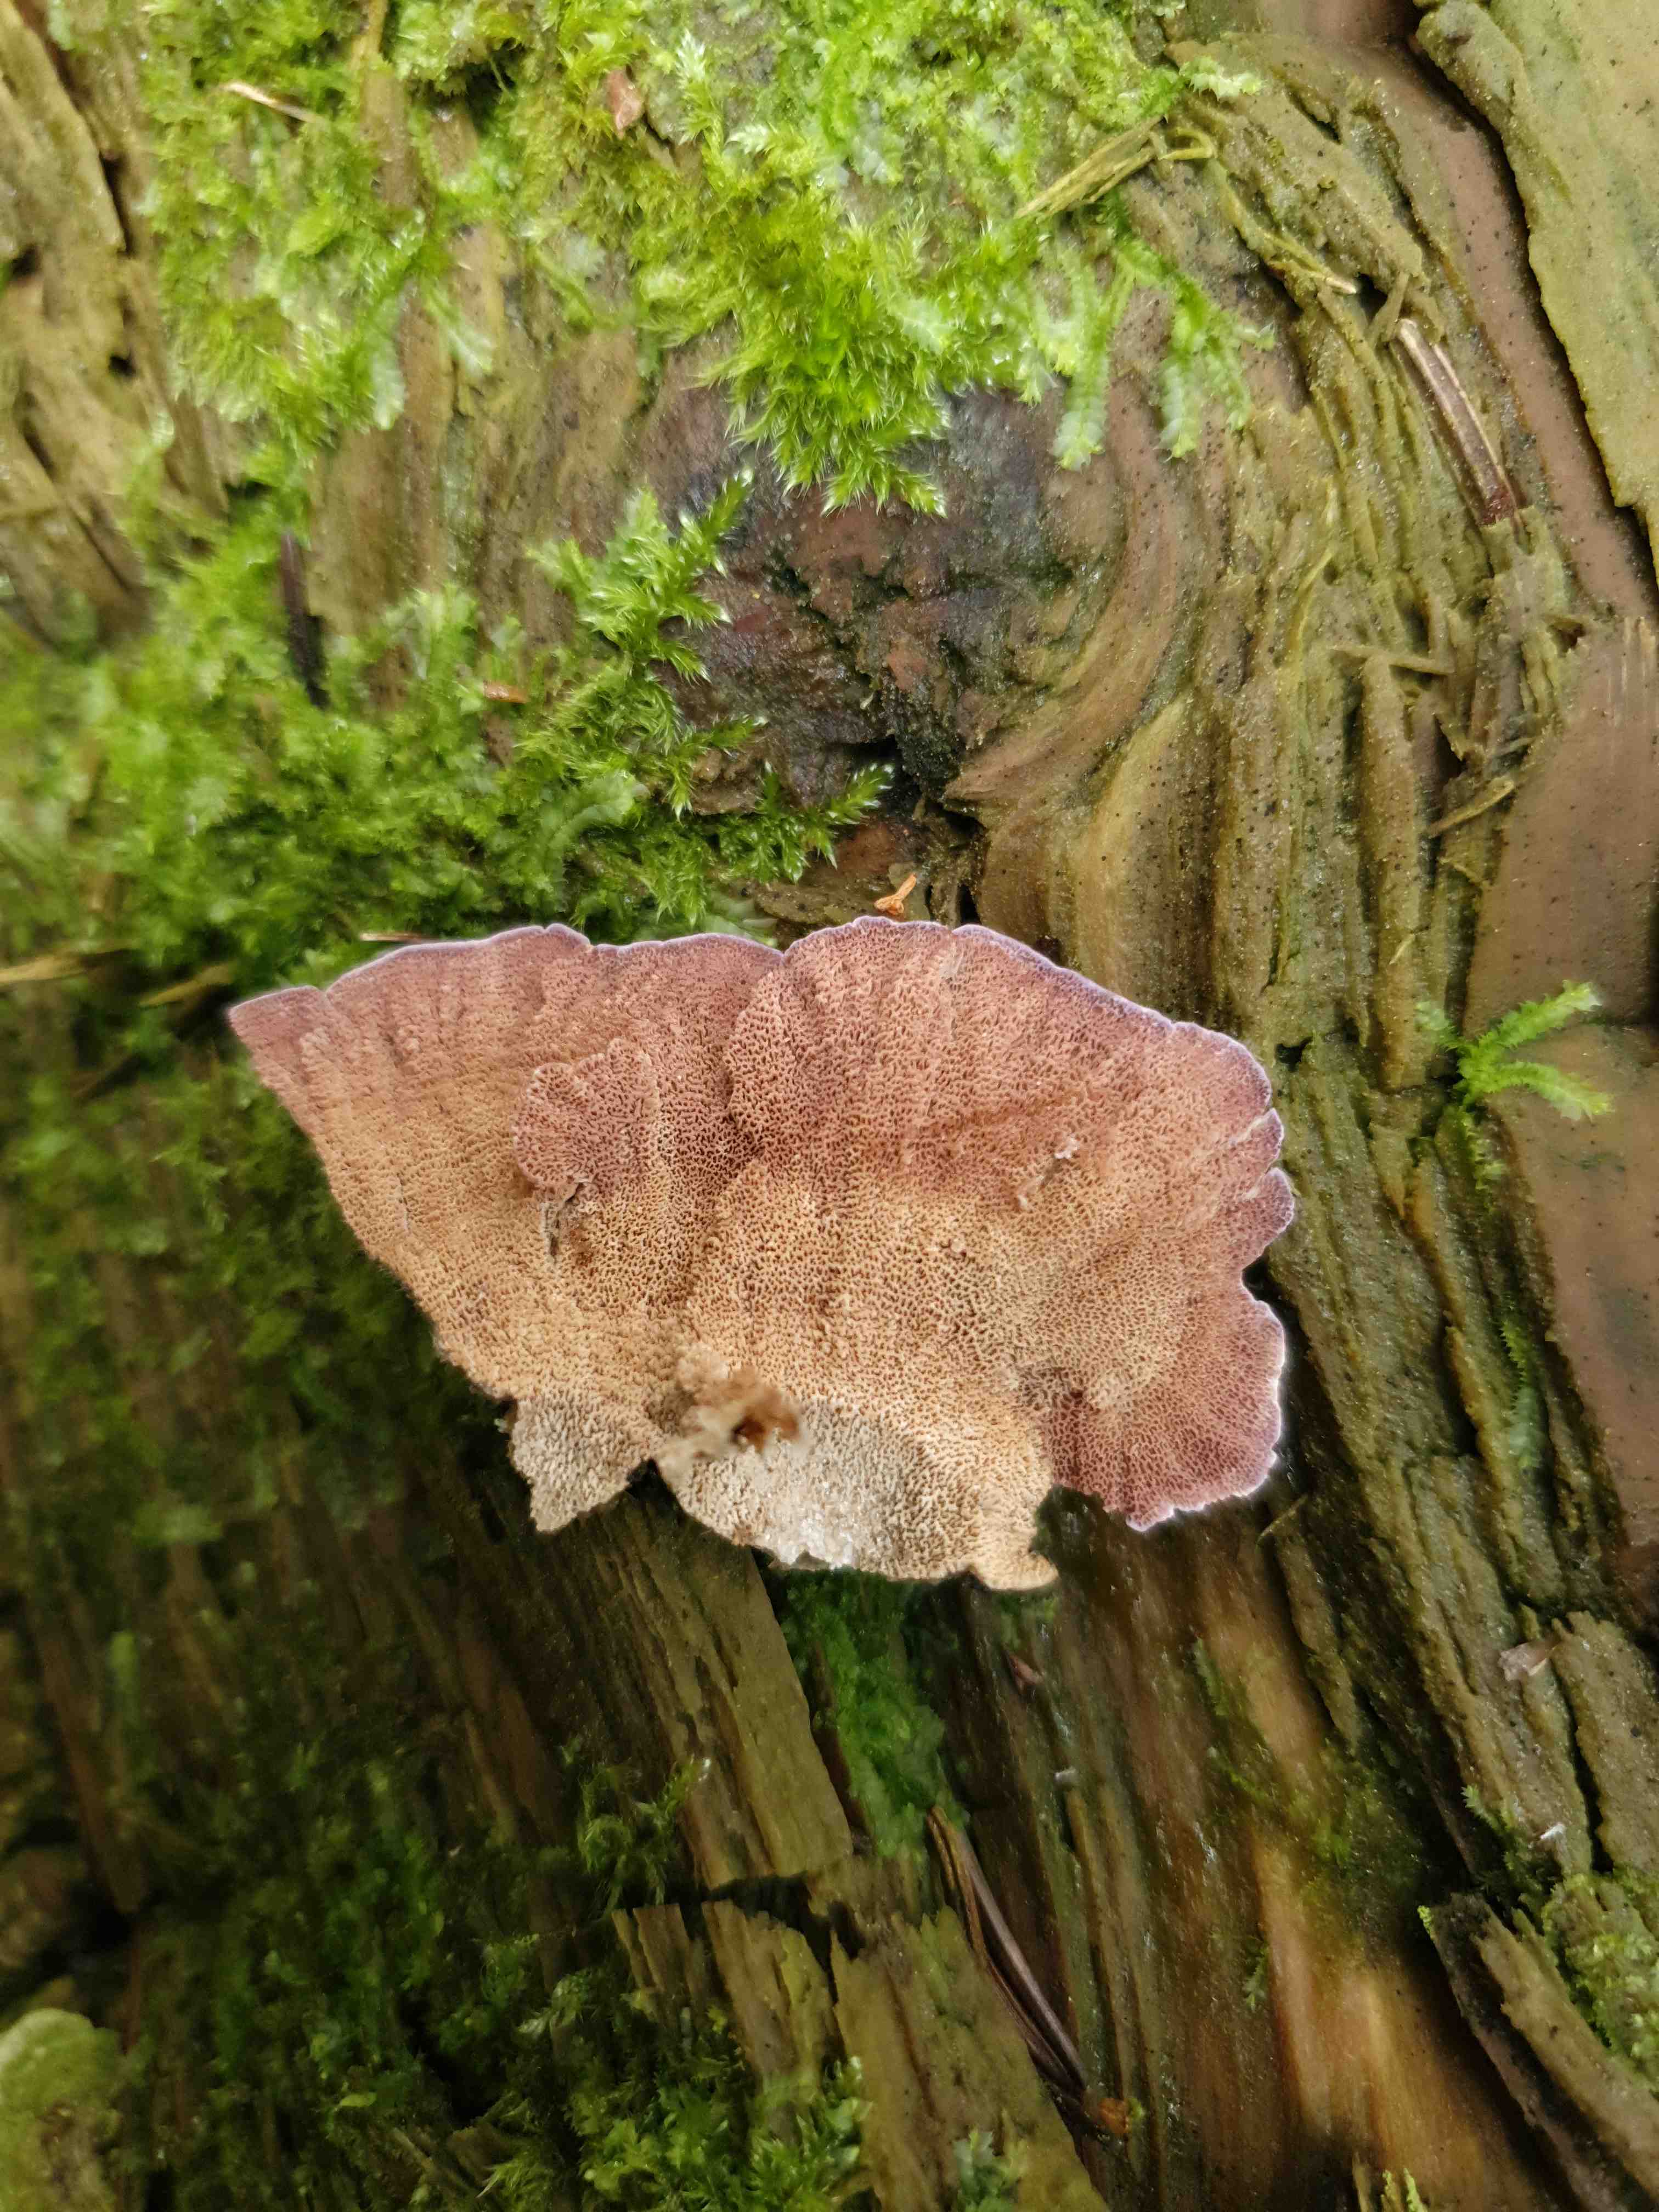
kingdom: Fungi
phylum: Basidiomycota
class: Agaricomycetes
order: Hymenochaetales
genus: Trichaptum
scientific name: Trichaptum abietinum
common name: almindelig violporesvamp
